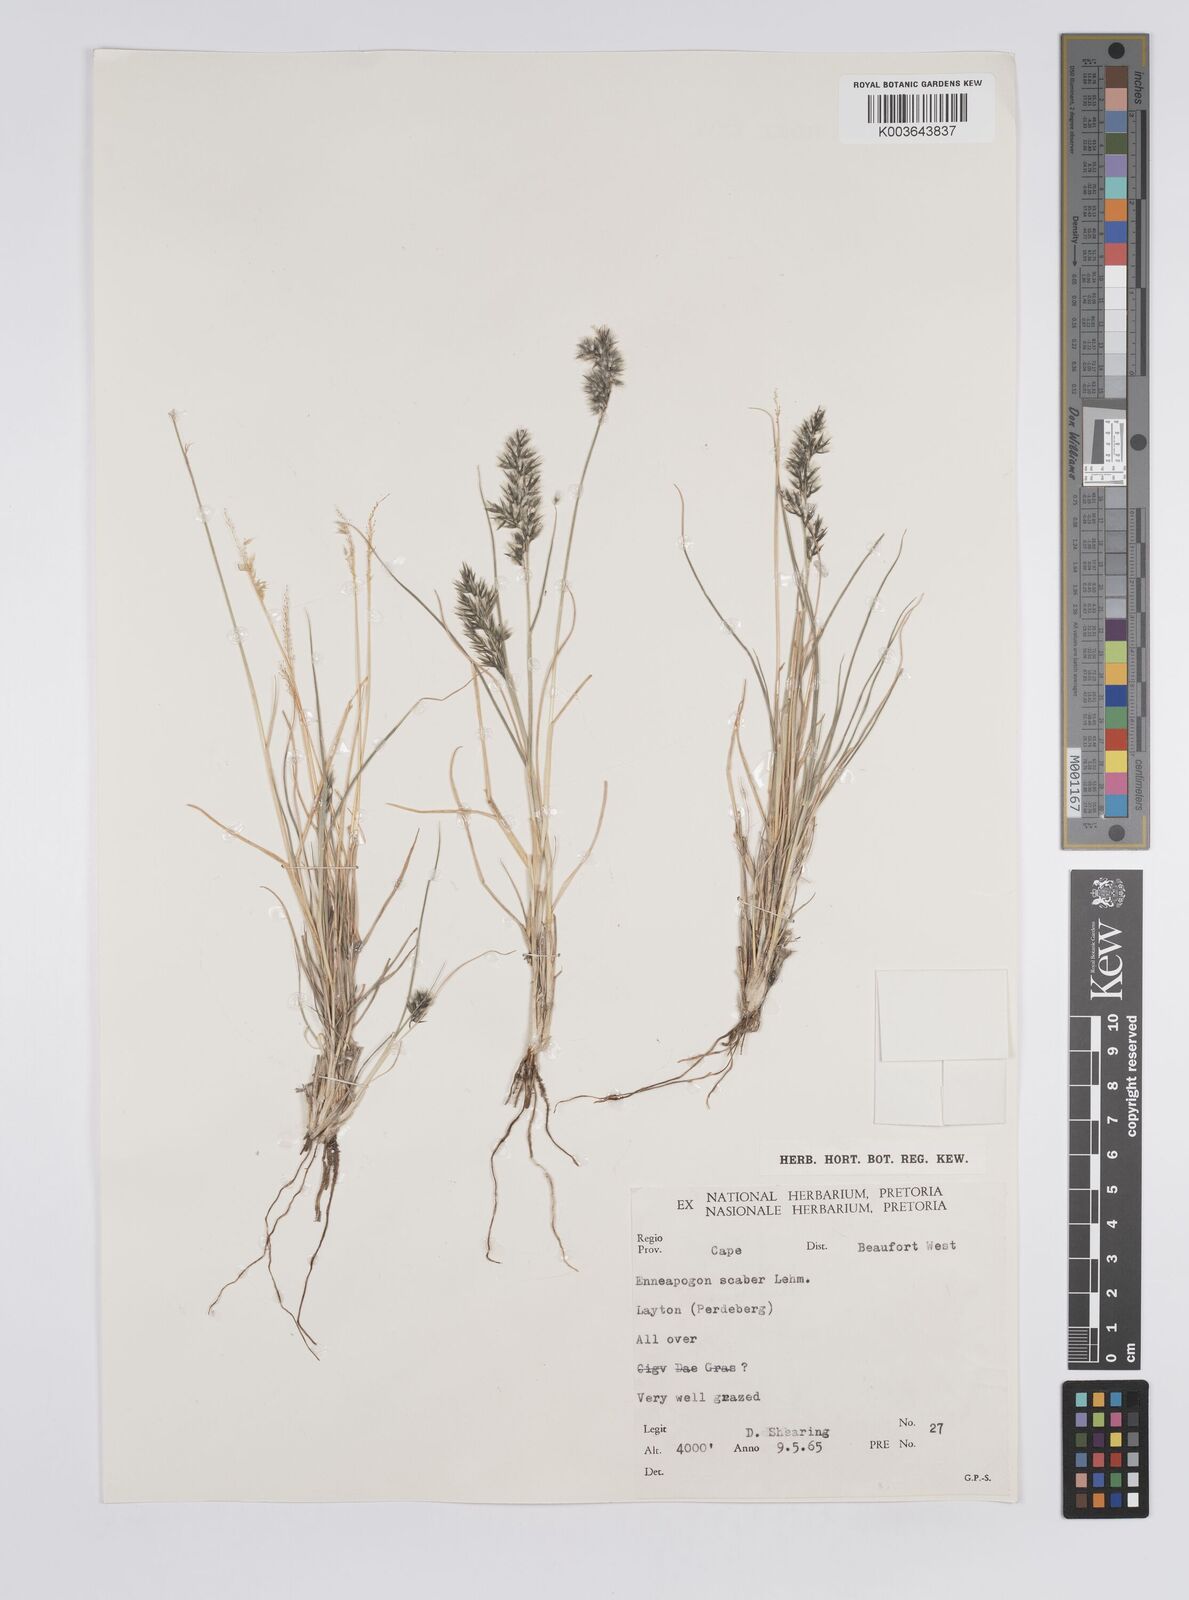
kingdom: Plantae
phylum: Tracheophyta
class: Liliopsida
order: Poales
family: Poaceae
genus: Enneapogon
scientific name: Enneapogon scaber
